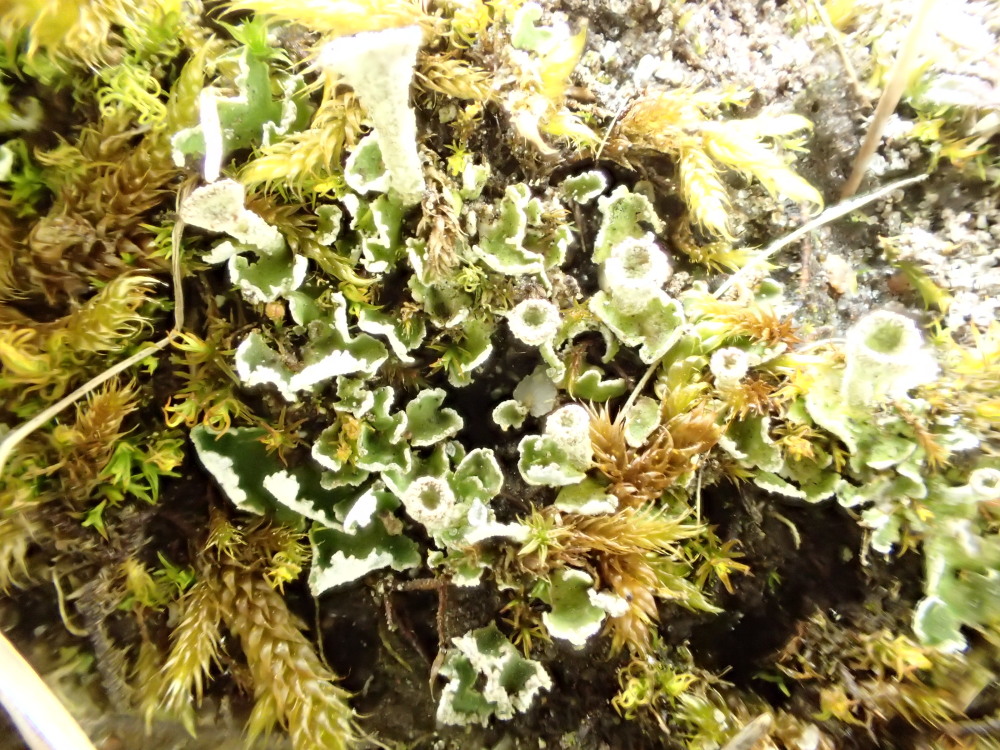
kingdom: Fungi
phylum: Ascomycota
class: Lecanoromycetes
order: Lecanorales
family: Cladoniaceae
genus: Cladonia
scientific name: Cladonia humilis
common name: lav bægerlav
